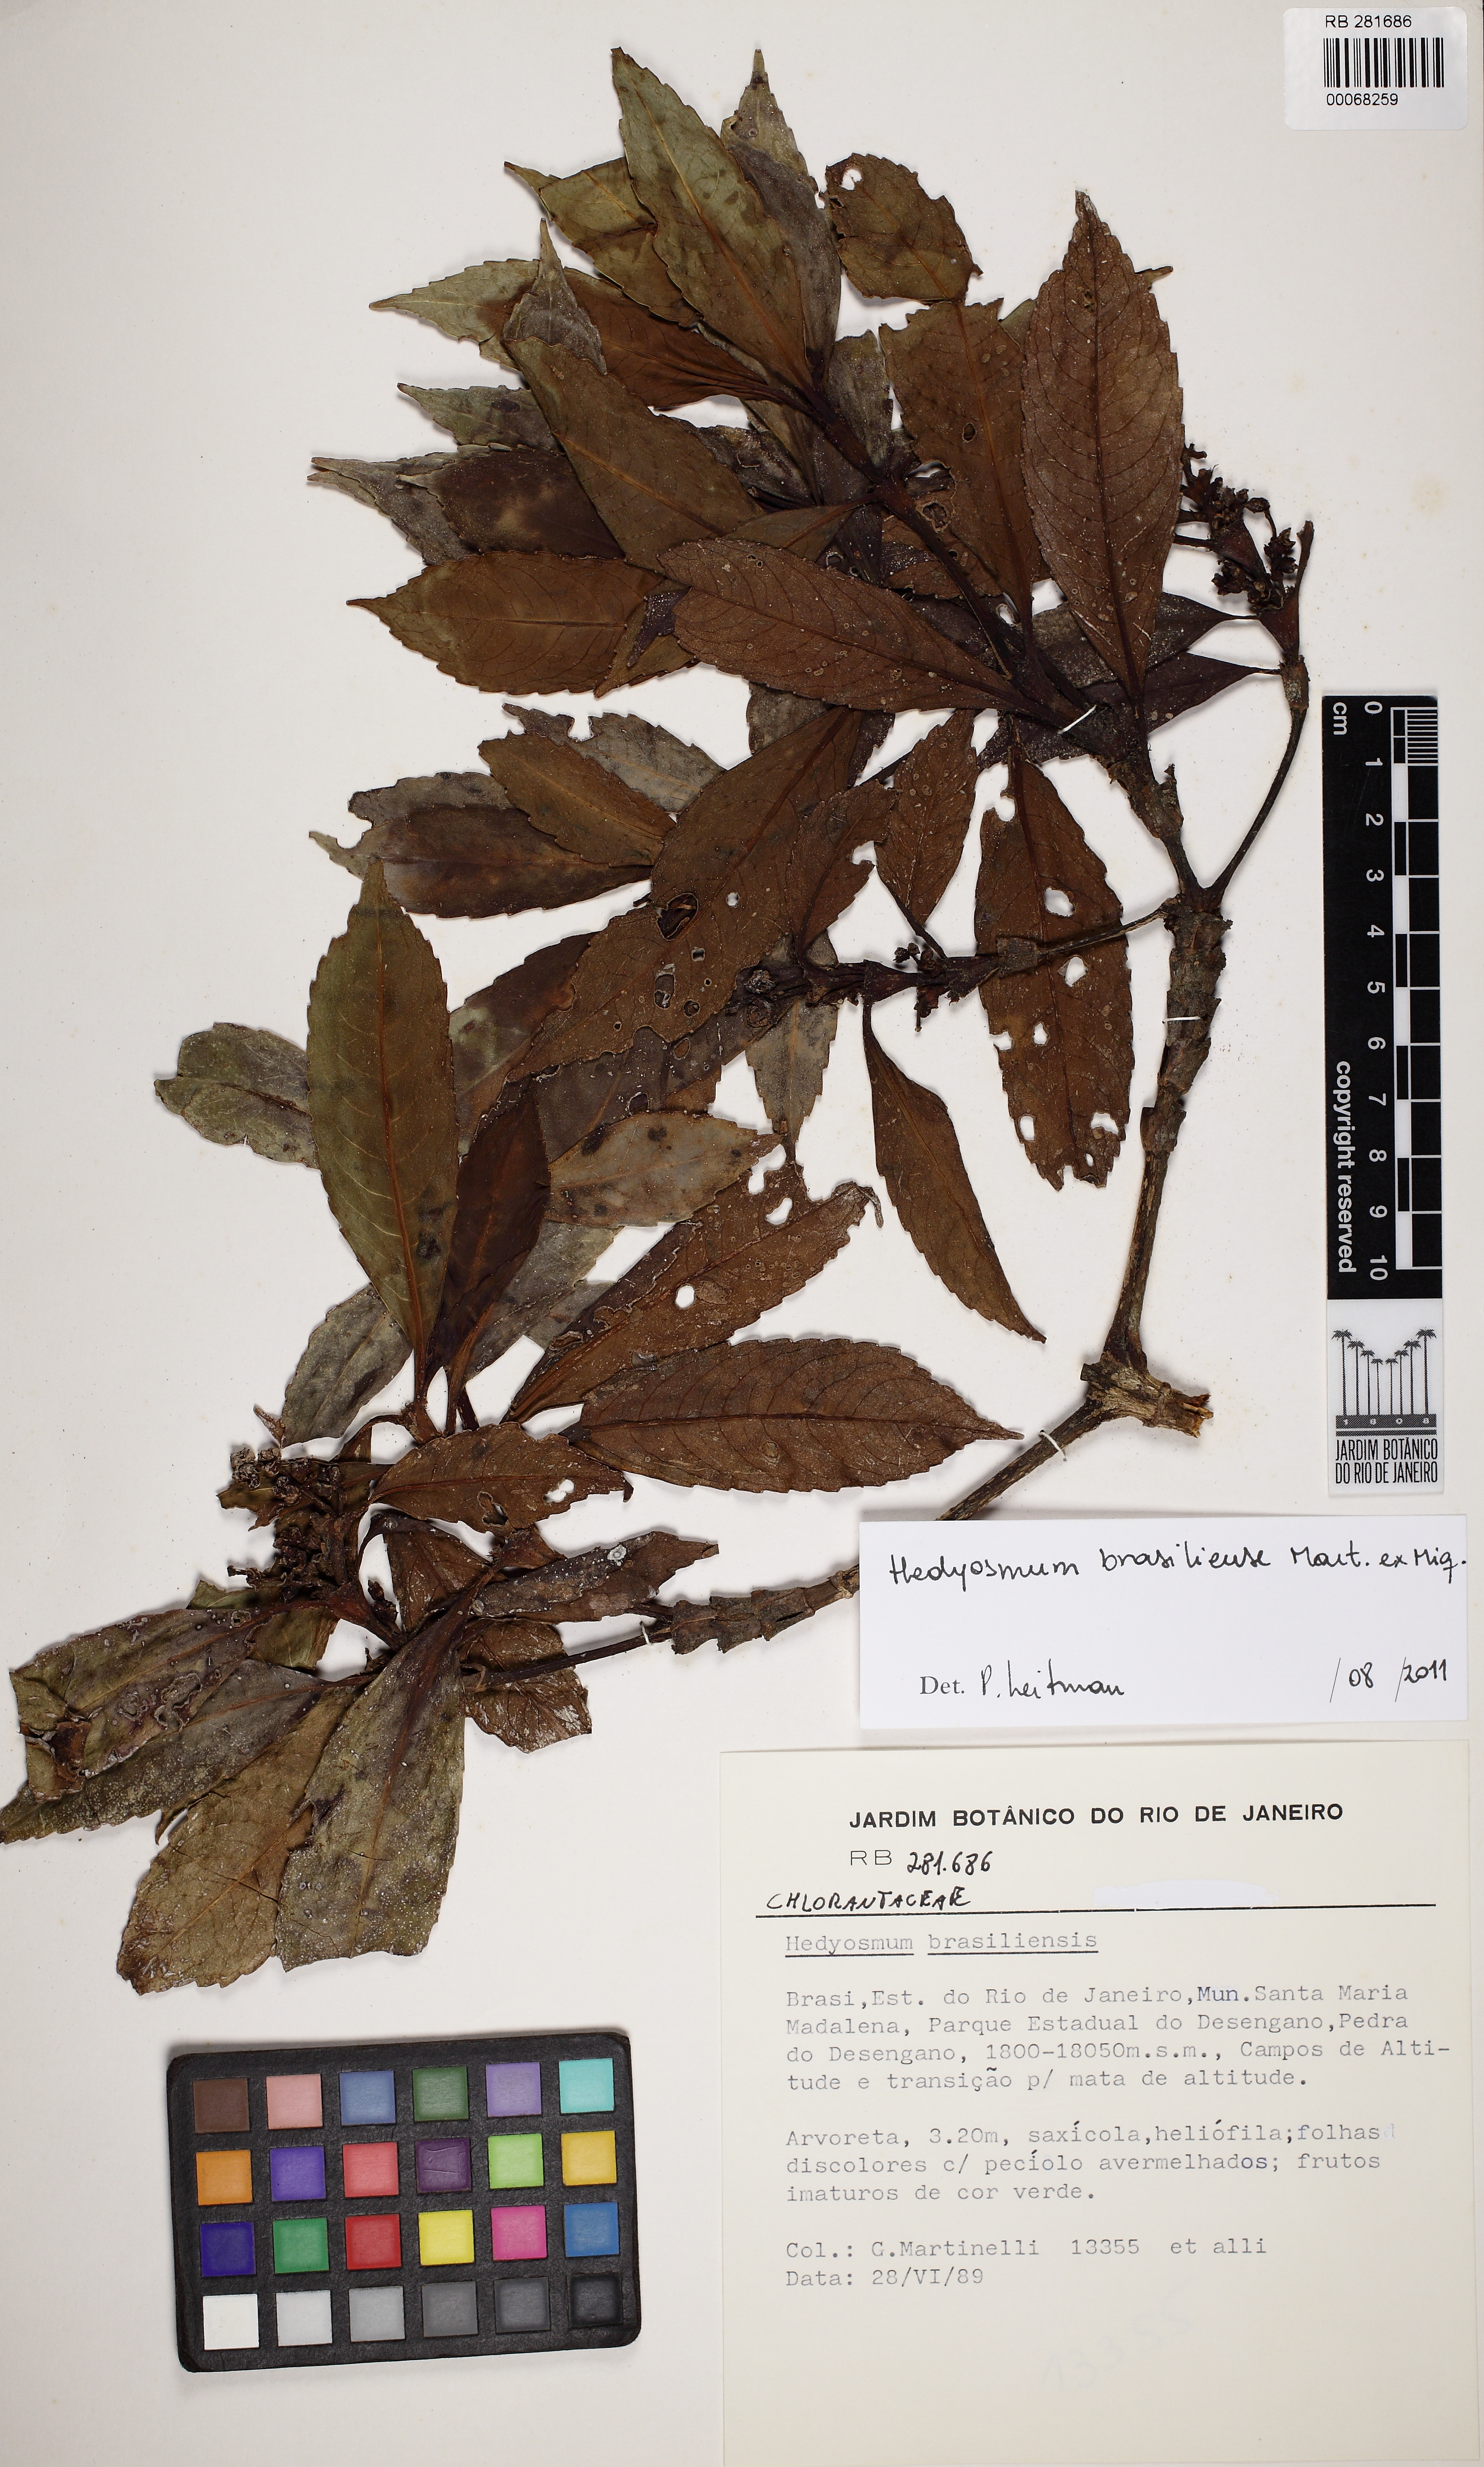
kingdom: Plantae
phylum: Tracheophyta
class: Magnoliopsida
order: Chloranthales
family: Chloranthaceae
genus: Hedyosmum
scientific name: Hedyosmum brasiliense
